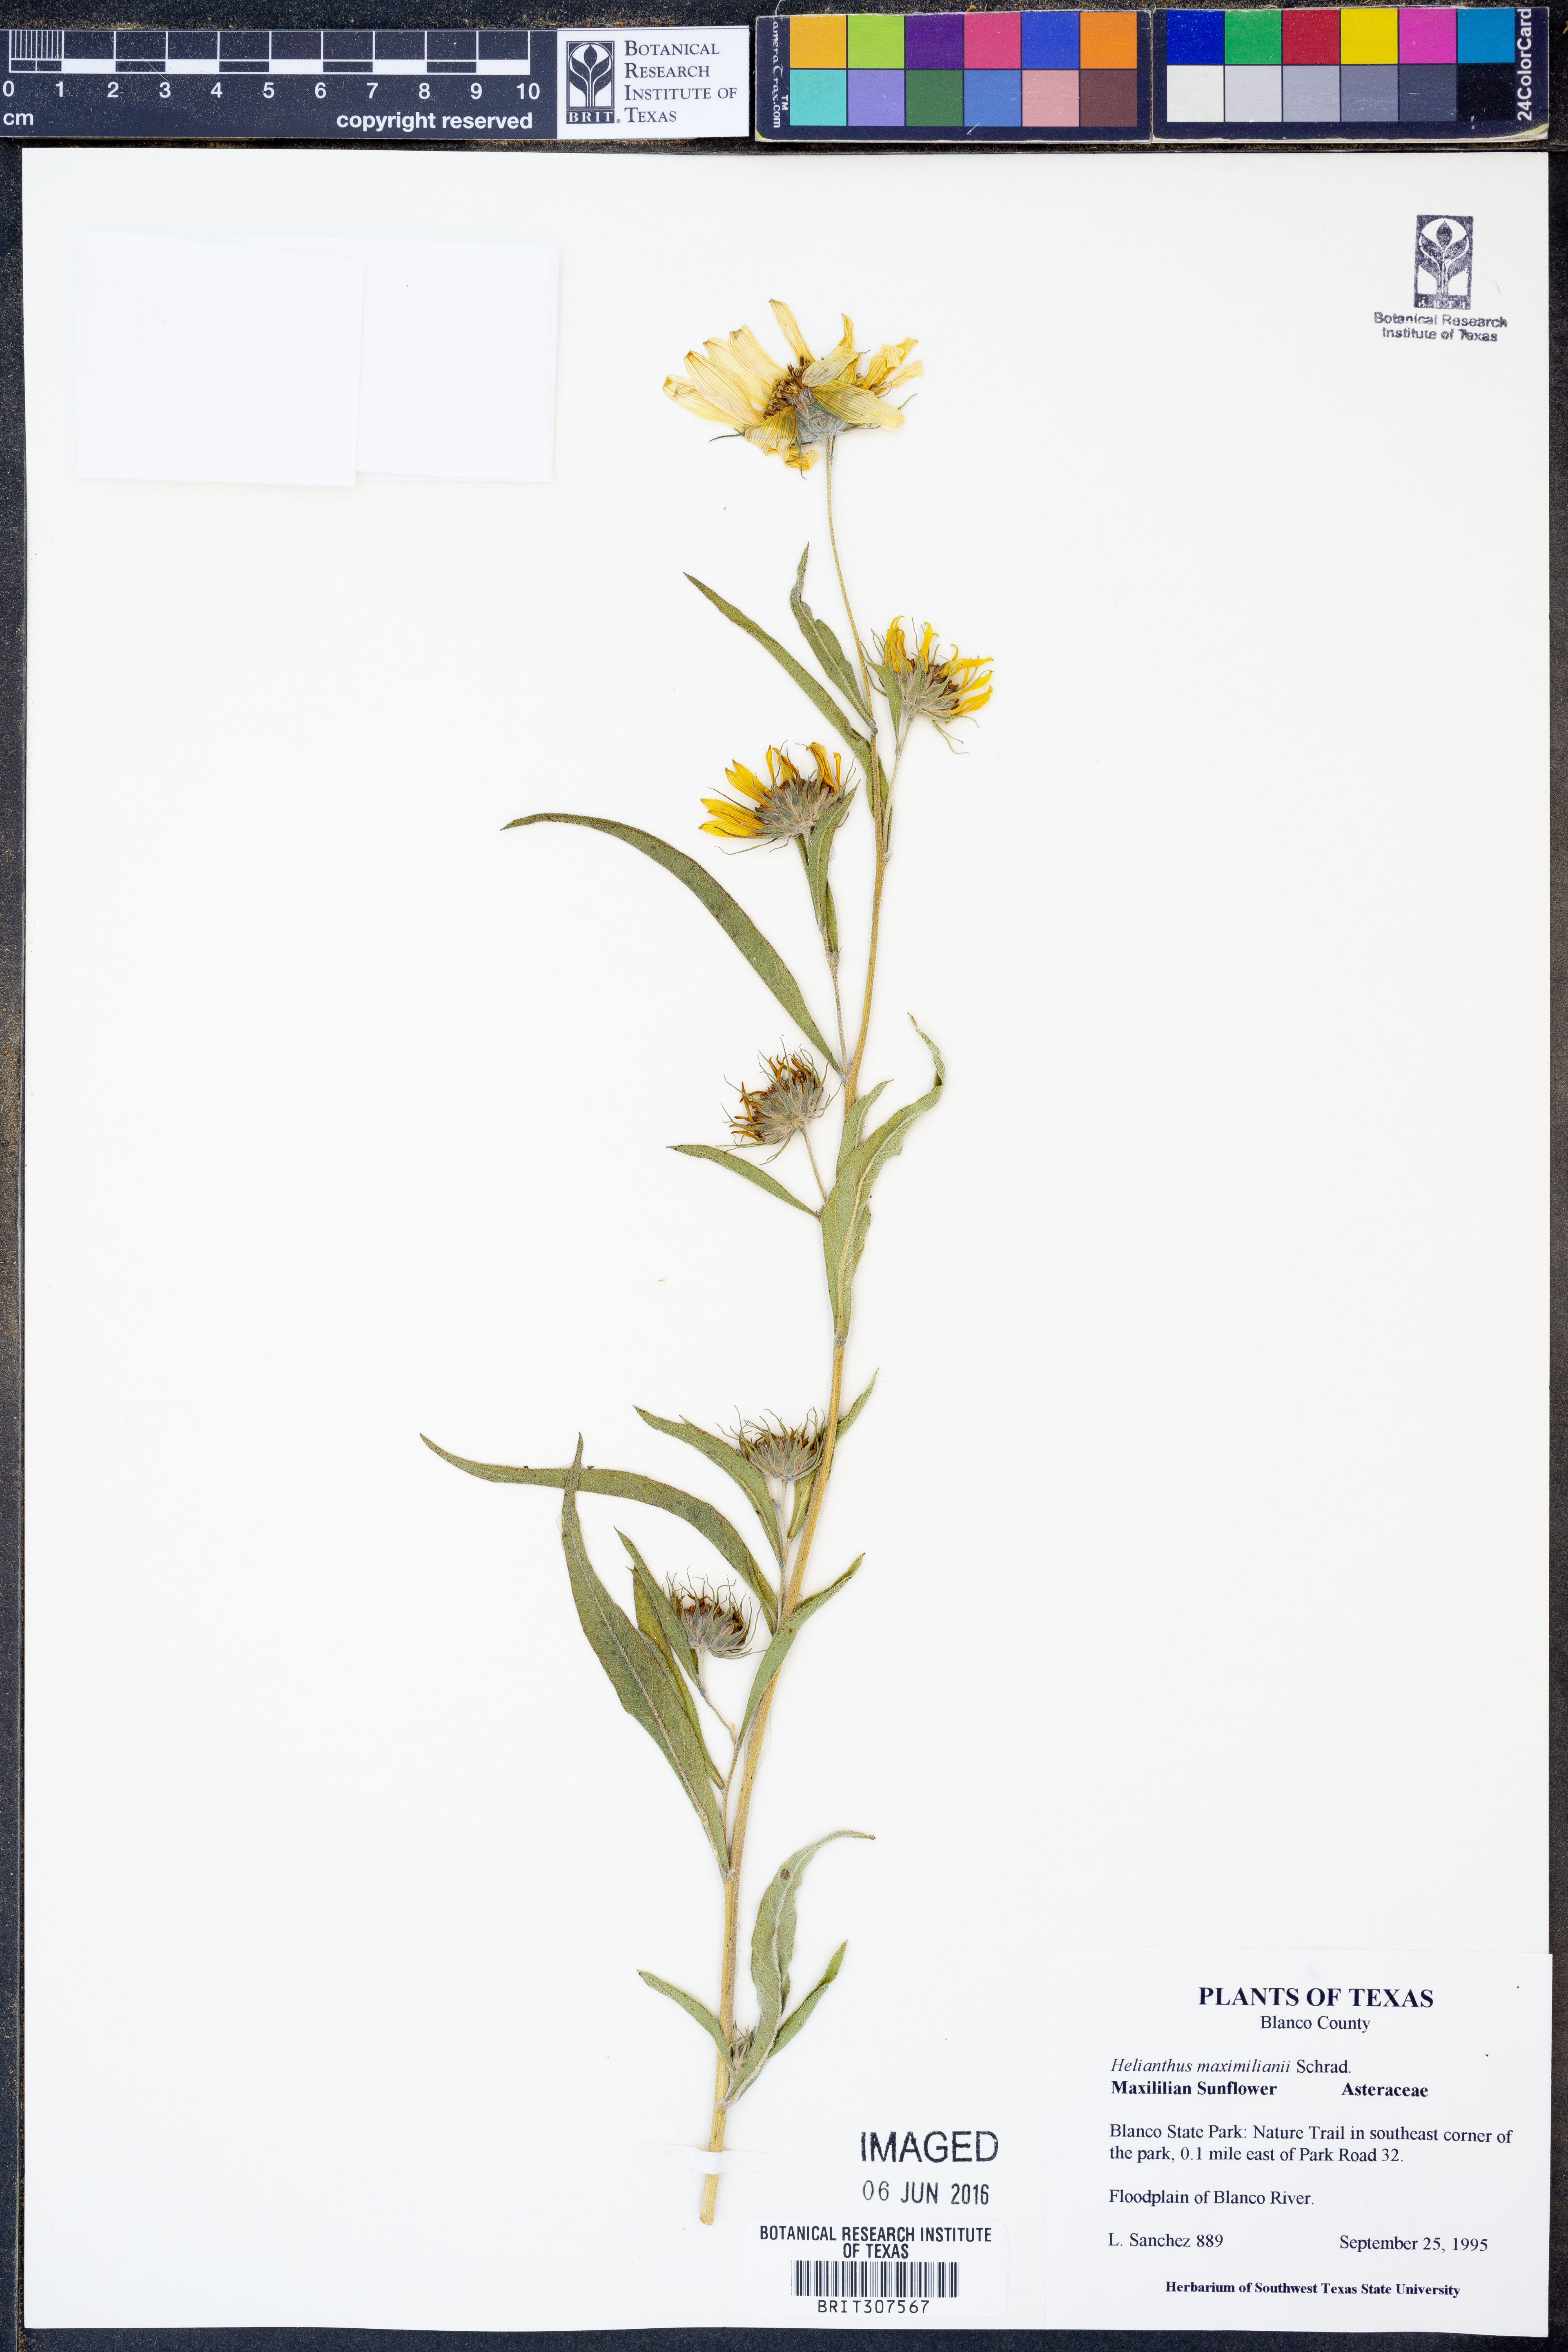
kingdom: Plantae
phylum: Tracheophyta
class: Magnoliopsida
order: Asterales
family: Asteraceae
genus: Helianthus
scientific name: Helianthus maximiliani
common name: Maximilian's sunflower
